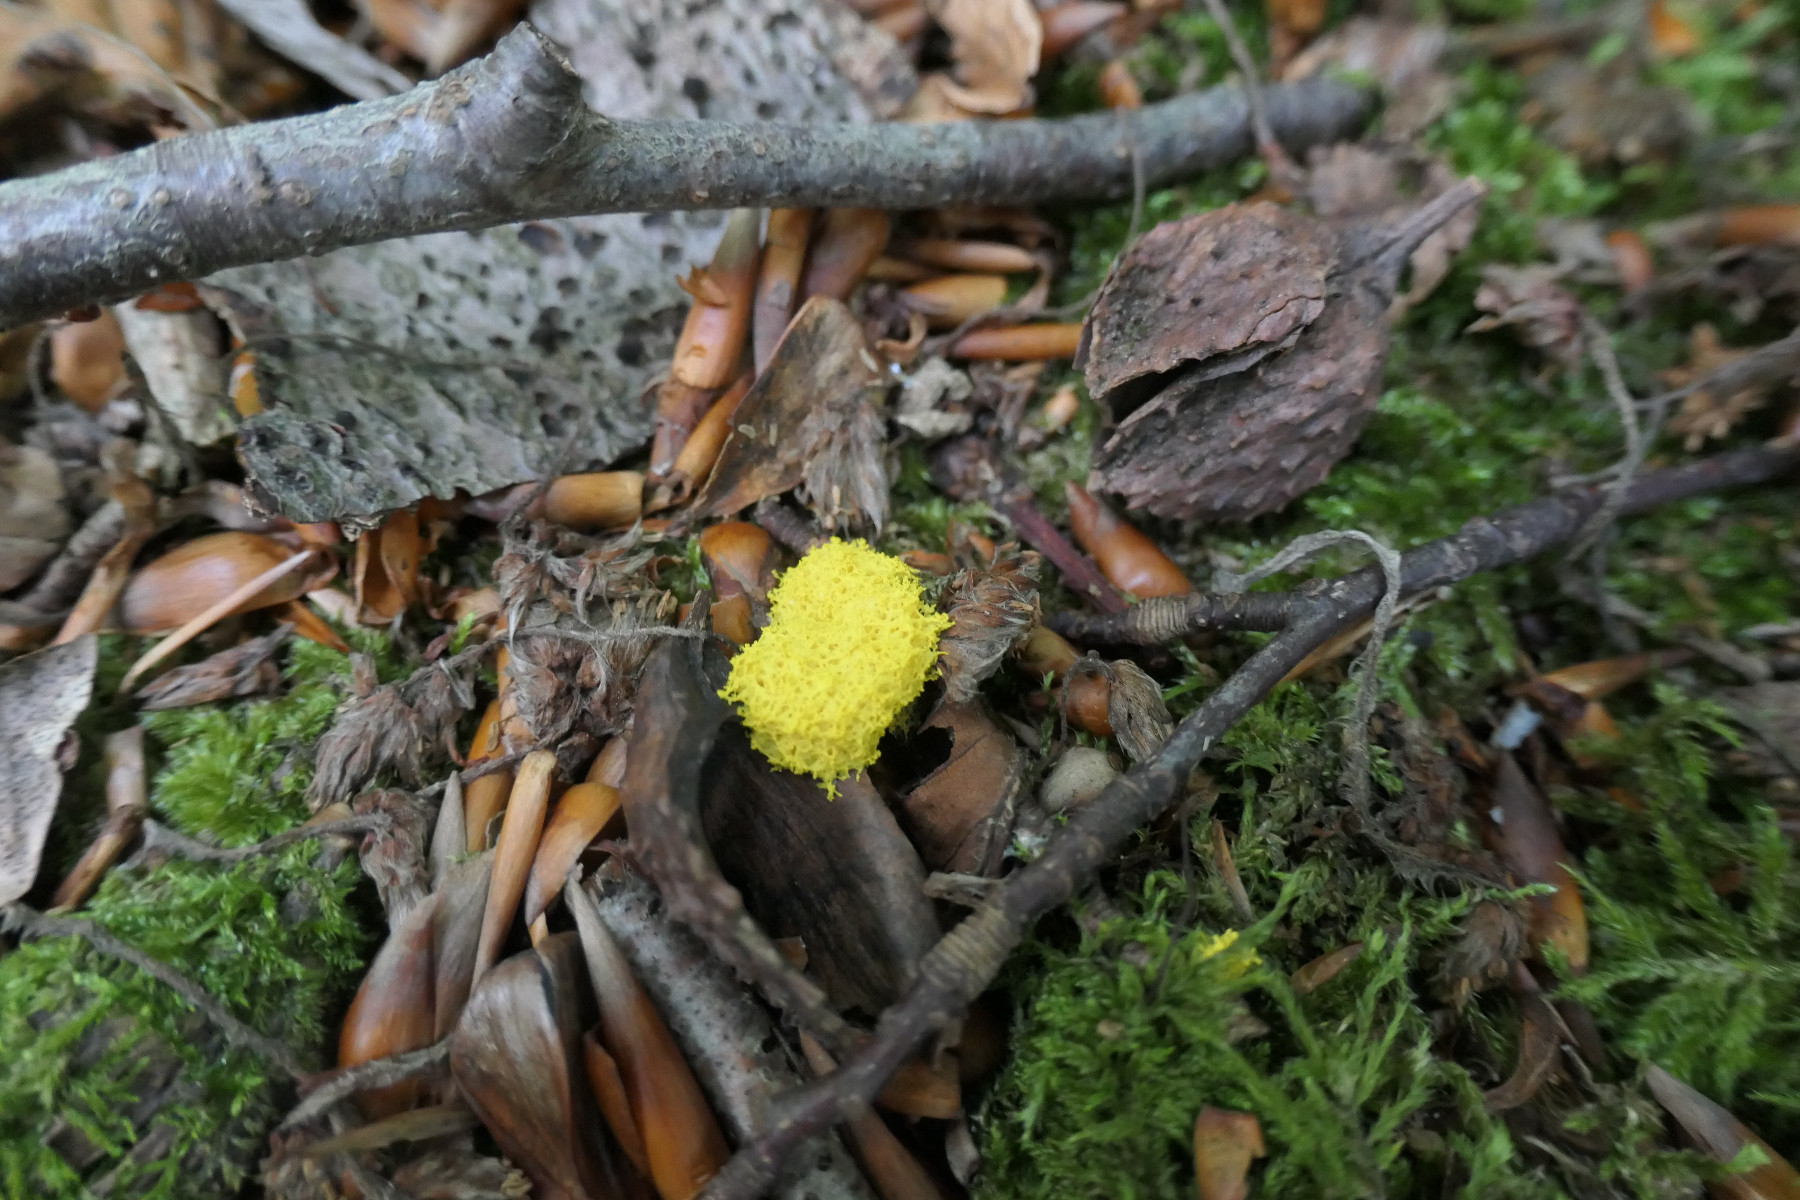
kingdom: Protozoa
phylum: Mycetozoa
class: Myxomycetes
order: Physarales
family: Physaraceae
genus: Fuligo
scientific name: Fuligo septica
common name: gul troldsmør
